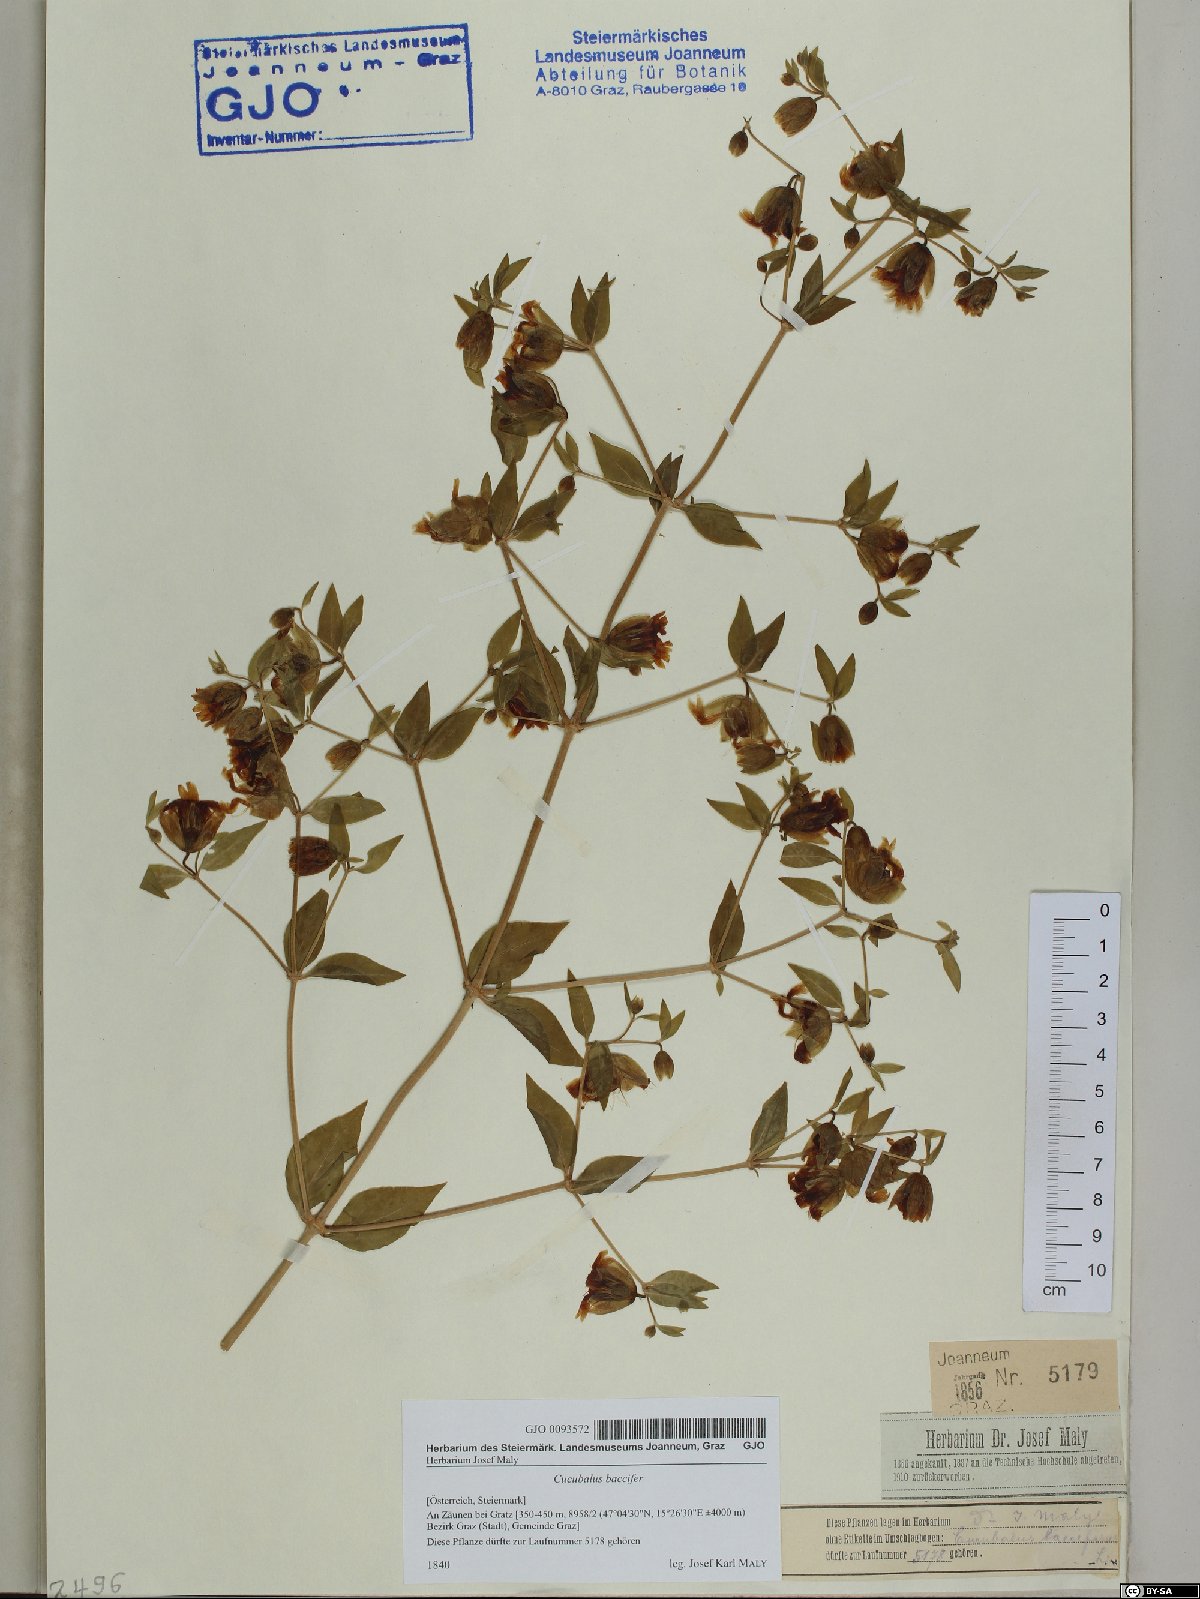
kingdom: Plantae
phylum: Tracheophyta
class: Magnoliopsida
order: Caryophyllales
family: Caryophyllaceae
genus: Silene
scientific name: Silene baccifera
